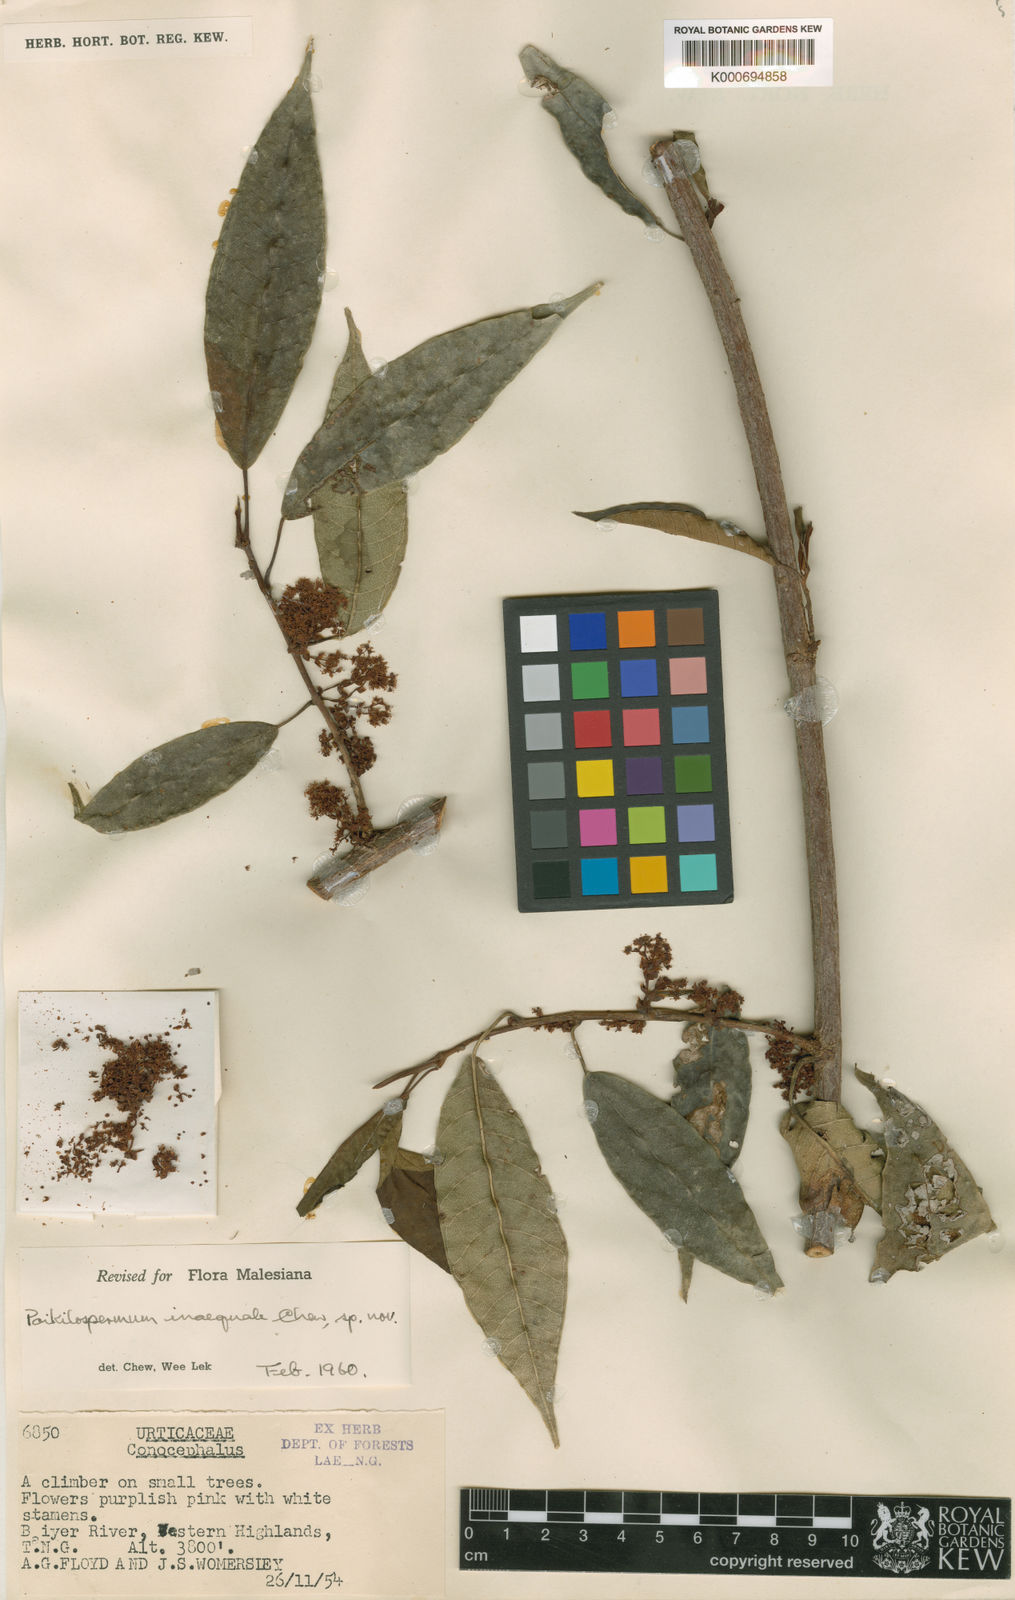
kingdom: Plantae
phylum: Tracheophyta
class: Magnoliopsida
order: Rosales
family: Urticaceae
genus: Poikilospermum
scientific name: Poikilospermum inaequale
